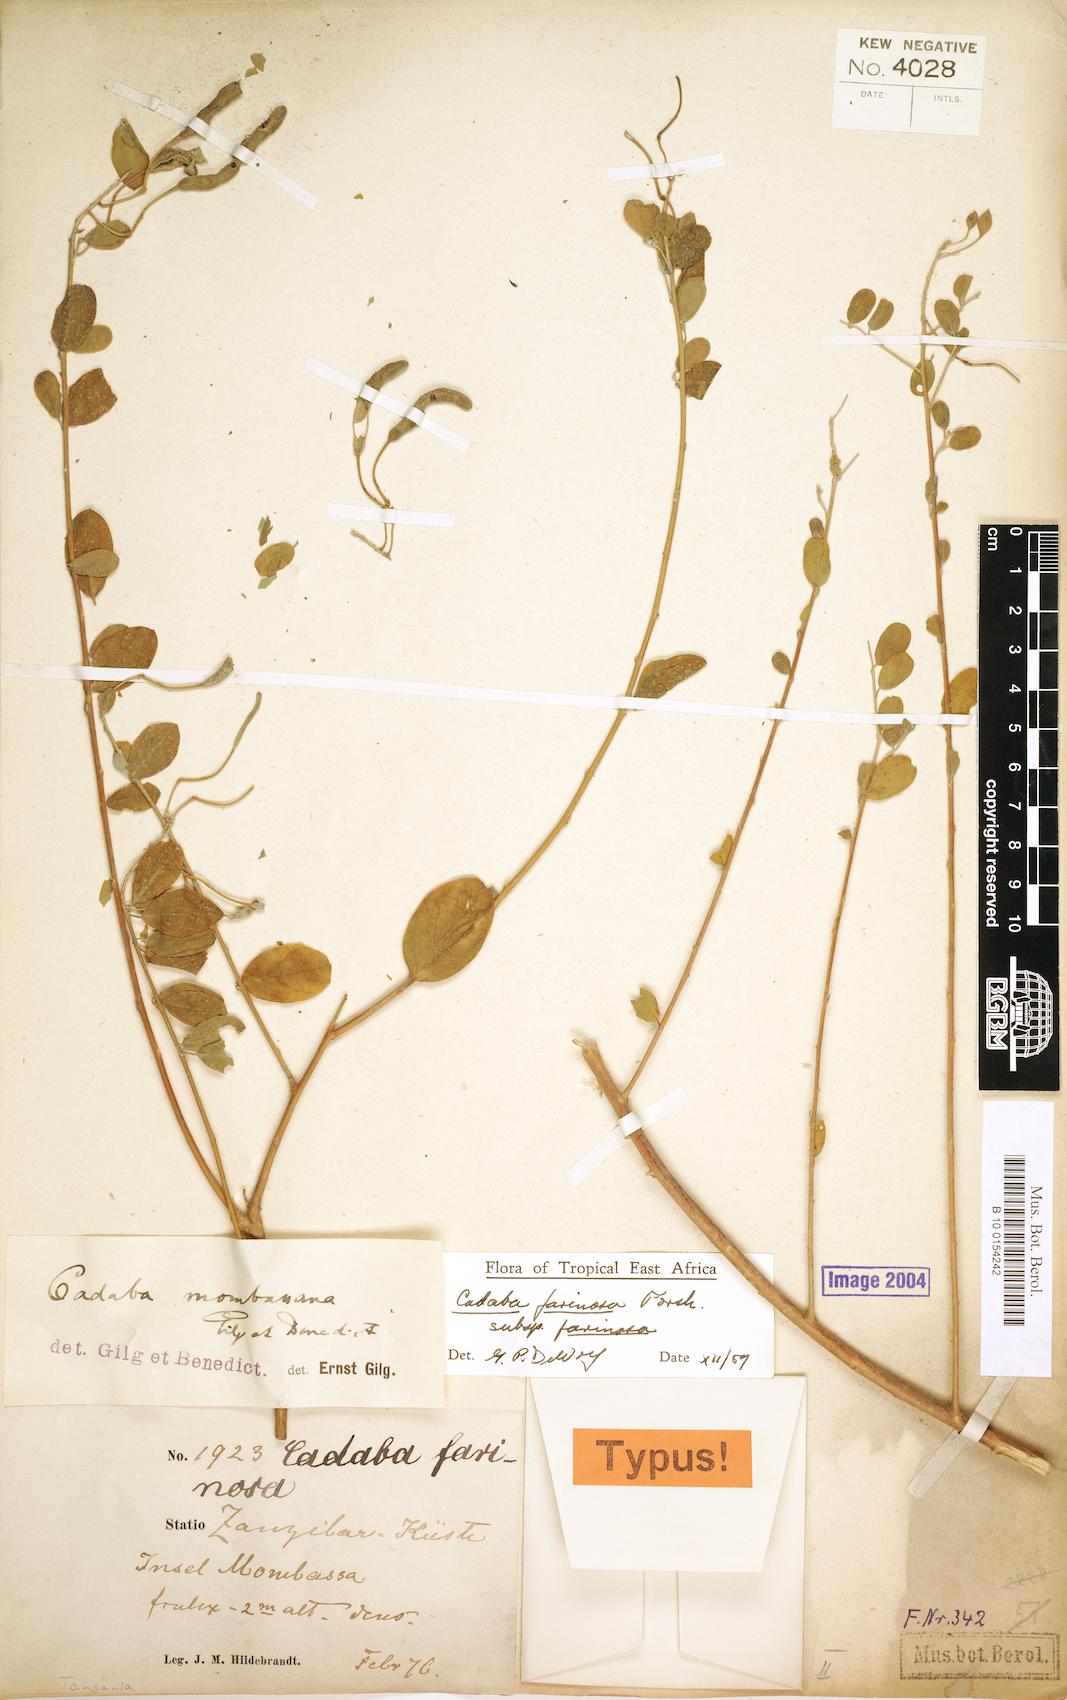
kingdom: Plantae
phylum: Tracheophyta
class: Magnoliopsida
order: Brassicales
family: Capparaceae
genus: Cadaba
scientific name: Cadaba farinosa
